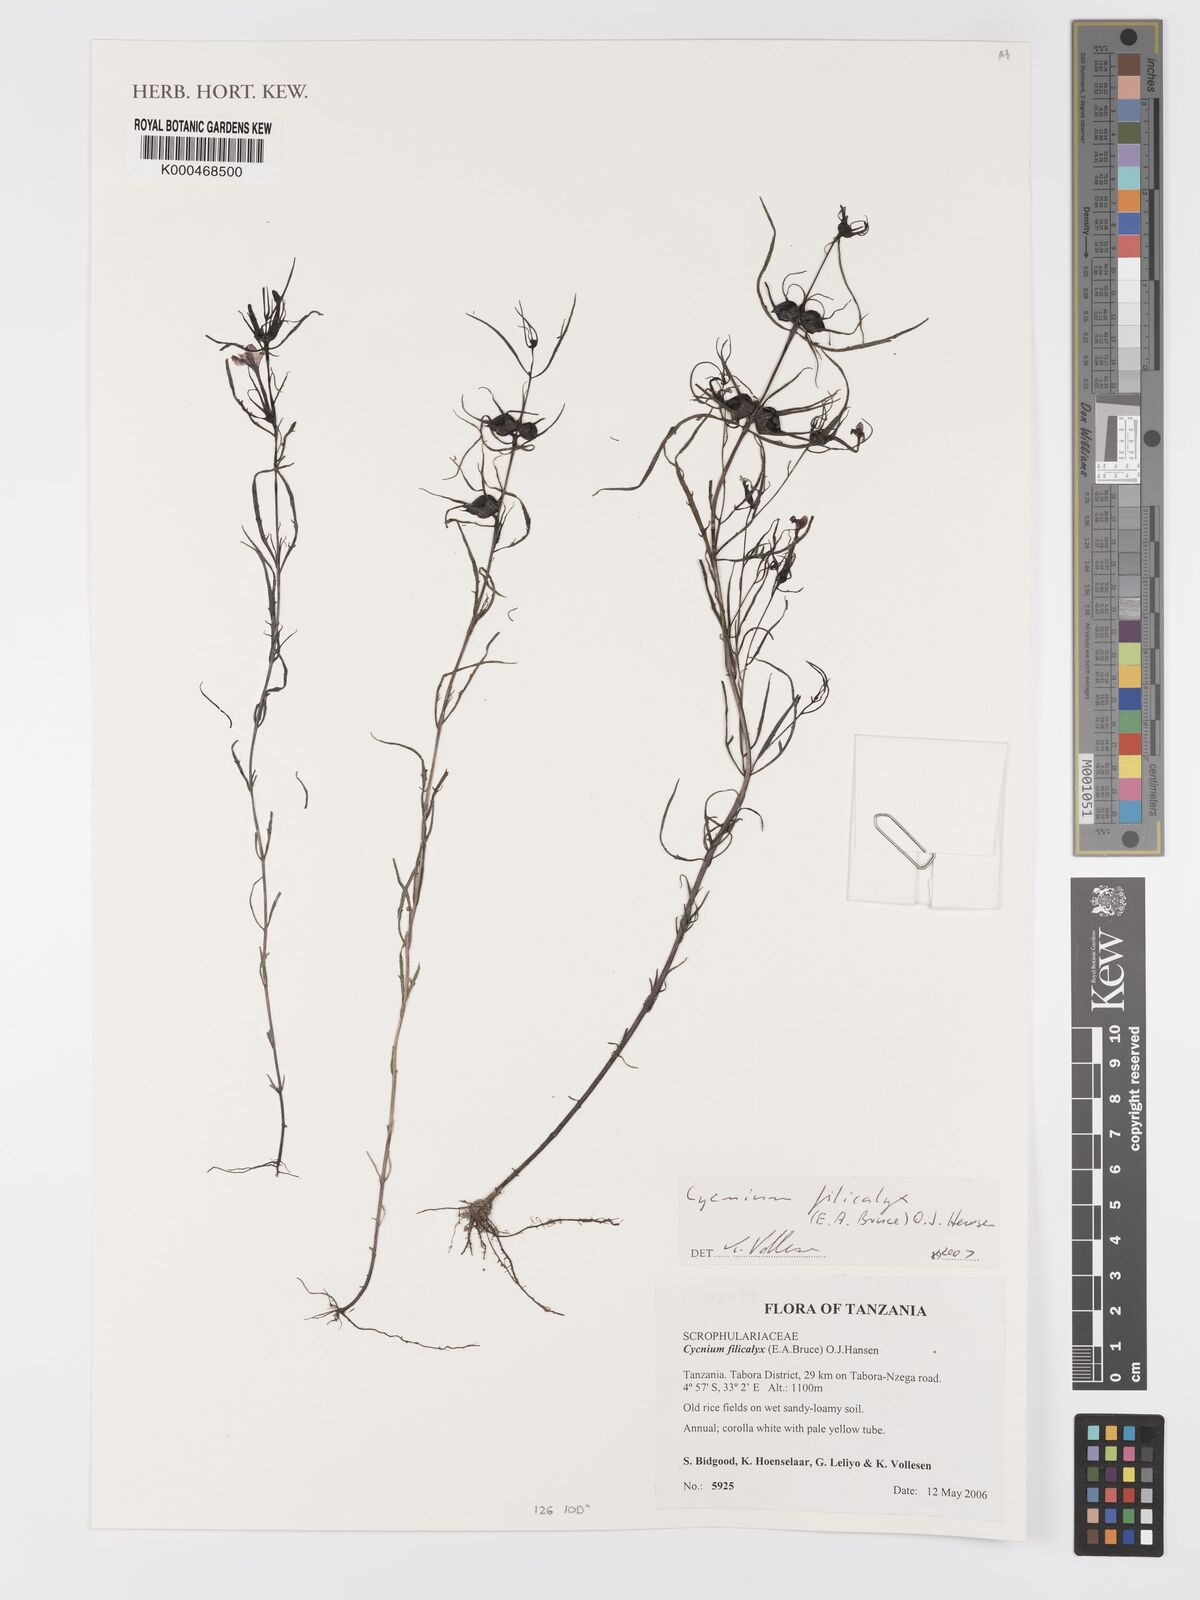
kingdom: Plantae
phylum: Tracheophyta
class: Magnoliopsida
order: Lamiales
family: Orobanchaceae
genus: Cycnium
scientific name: Cycnium filicalyx
